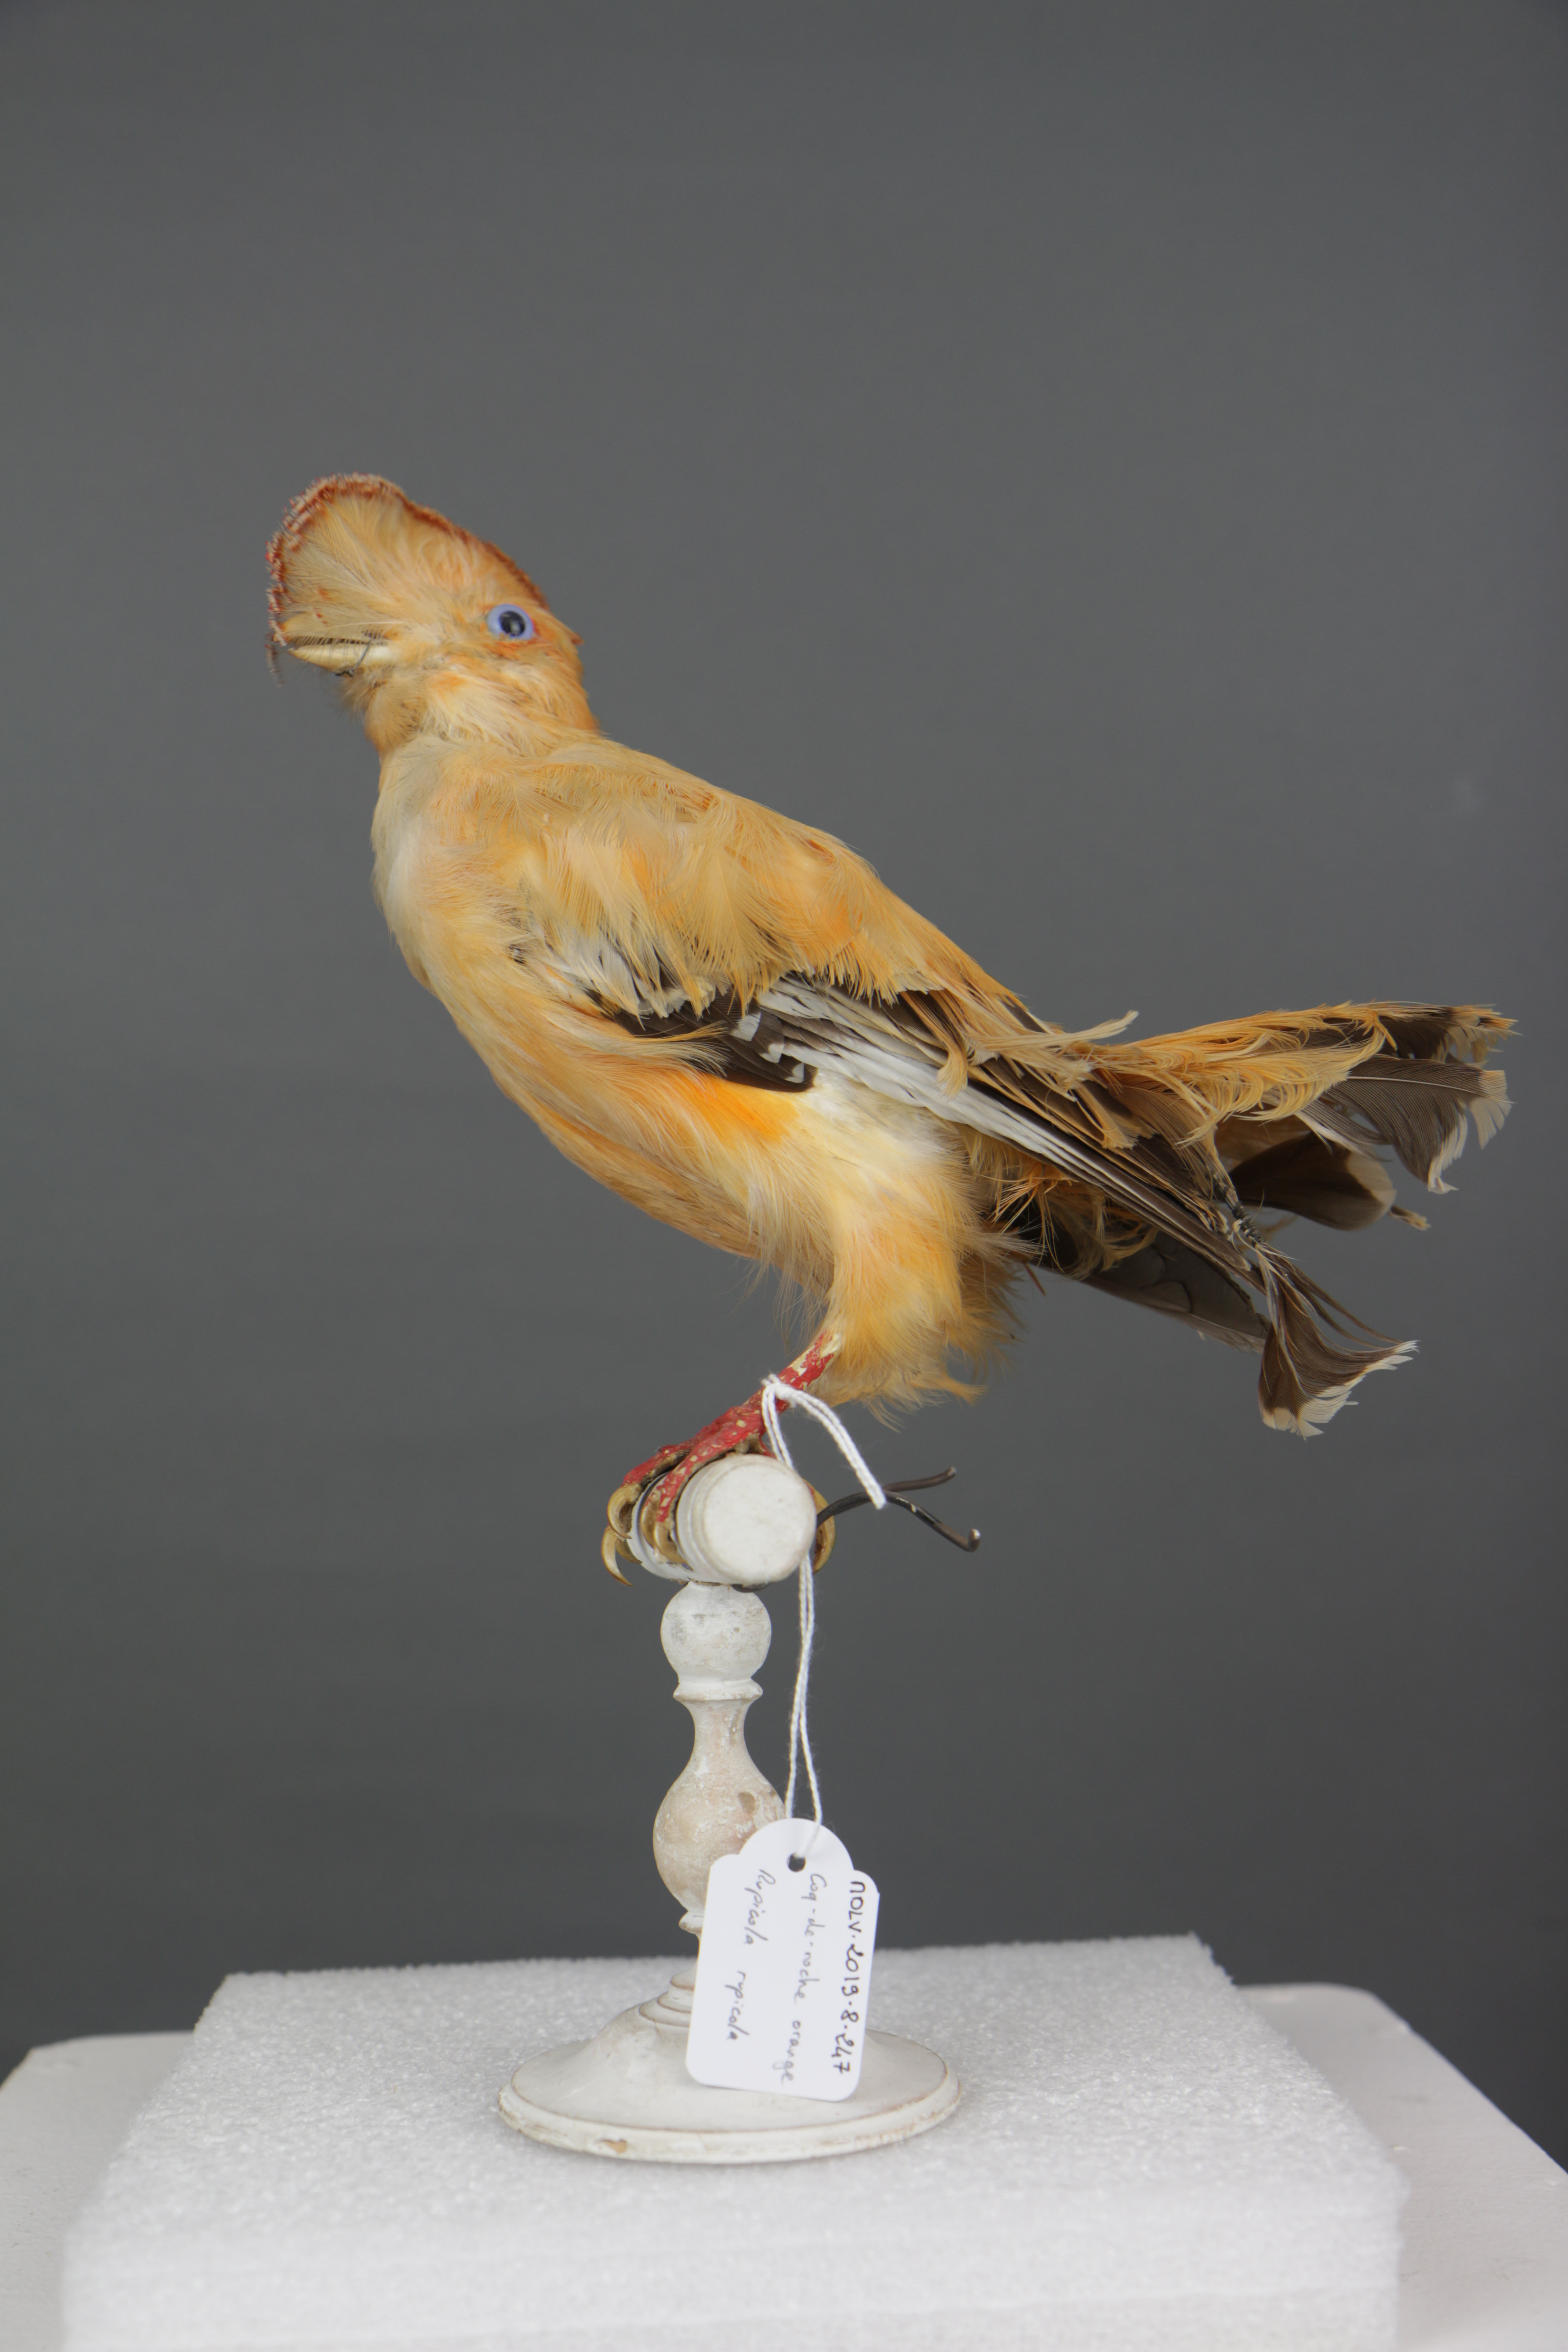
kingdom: Animalia
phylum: Chordata
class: Aves
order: Passeriformes
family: Cotingidae
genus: Rupicola
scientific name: Rupicola rupicola
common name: Guianan cock-of-the-rock
